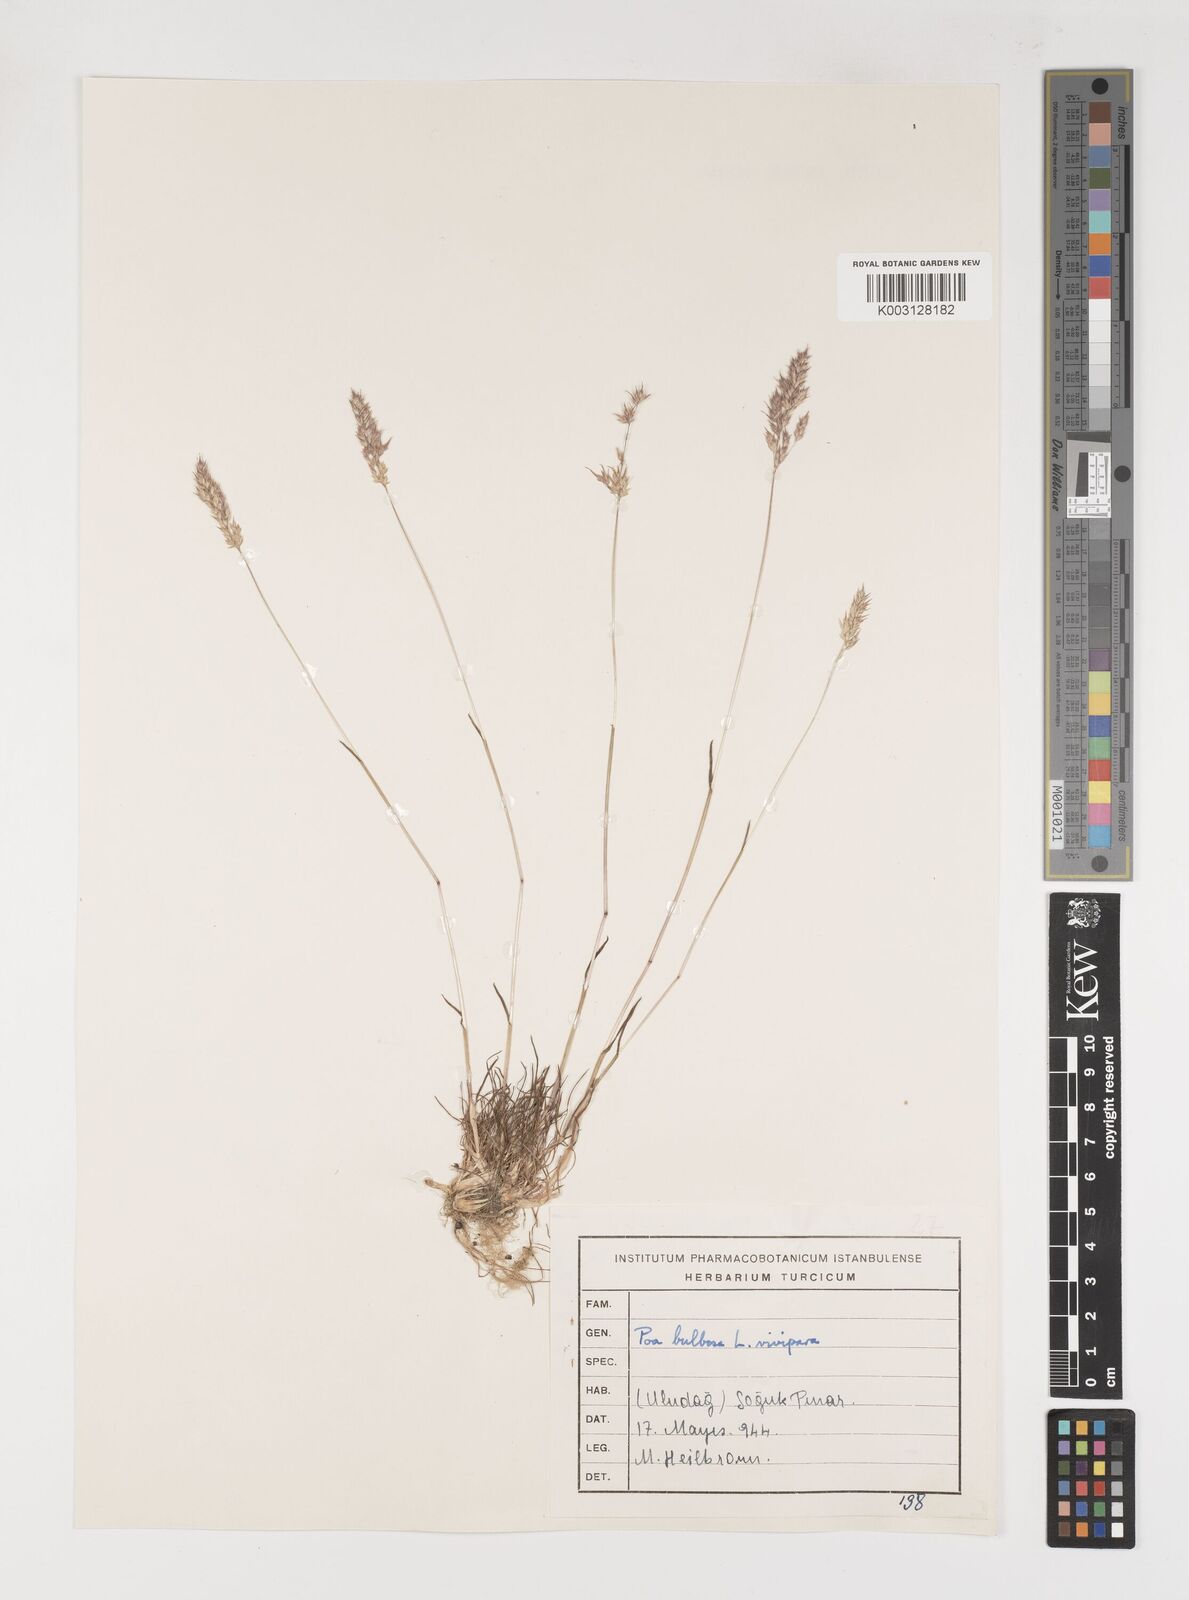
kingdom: Plantae
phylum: Tracheophyta
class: Liliopsida
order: Poales
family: Poaceae
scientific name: Poaceae
